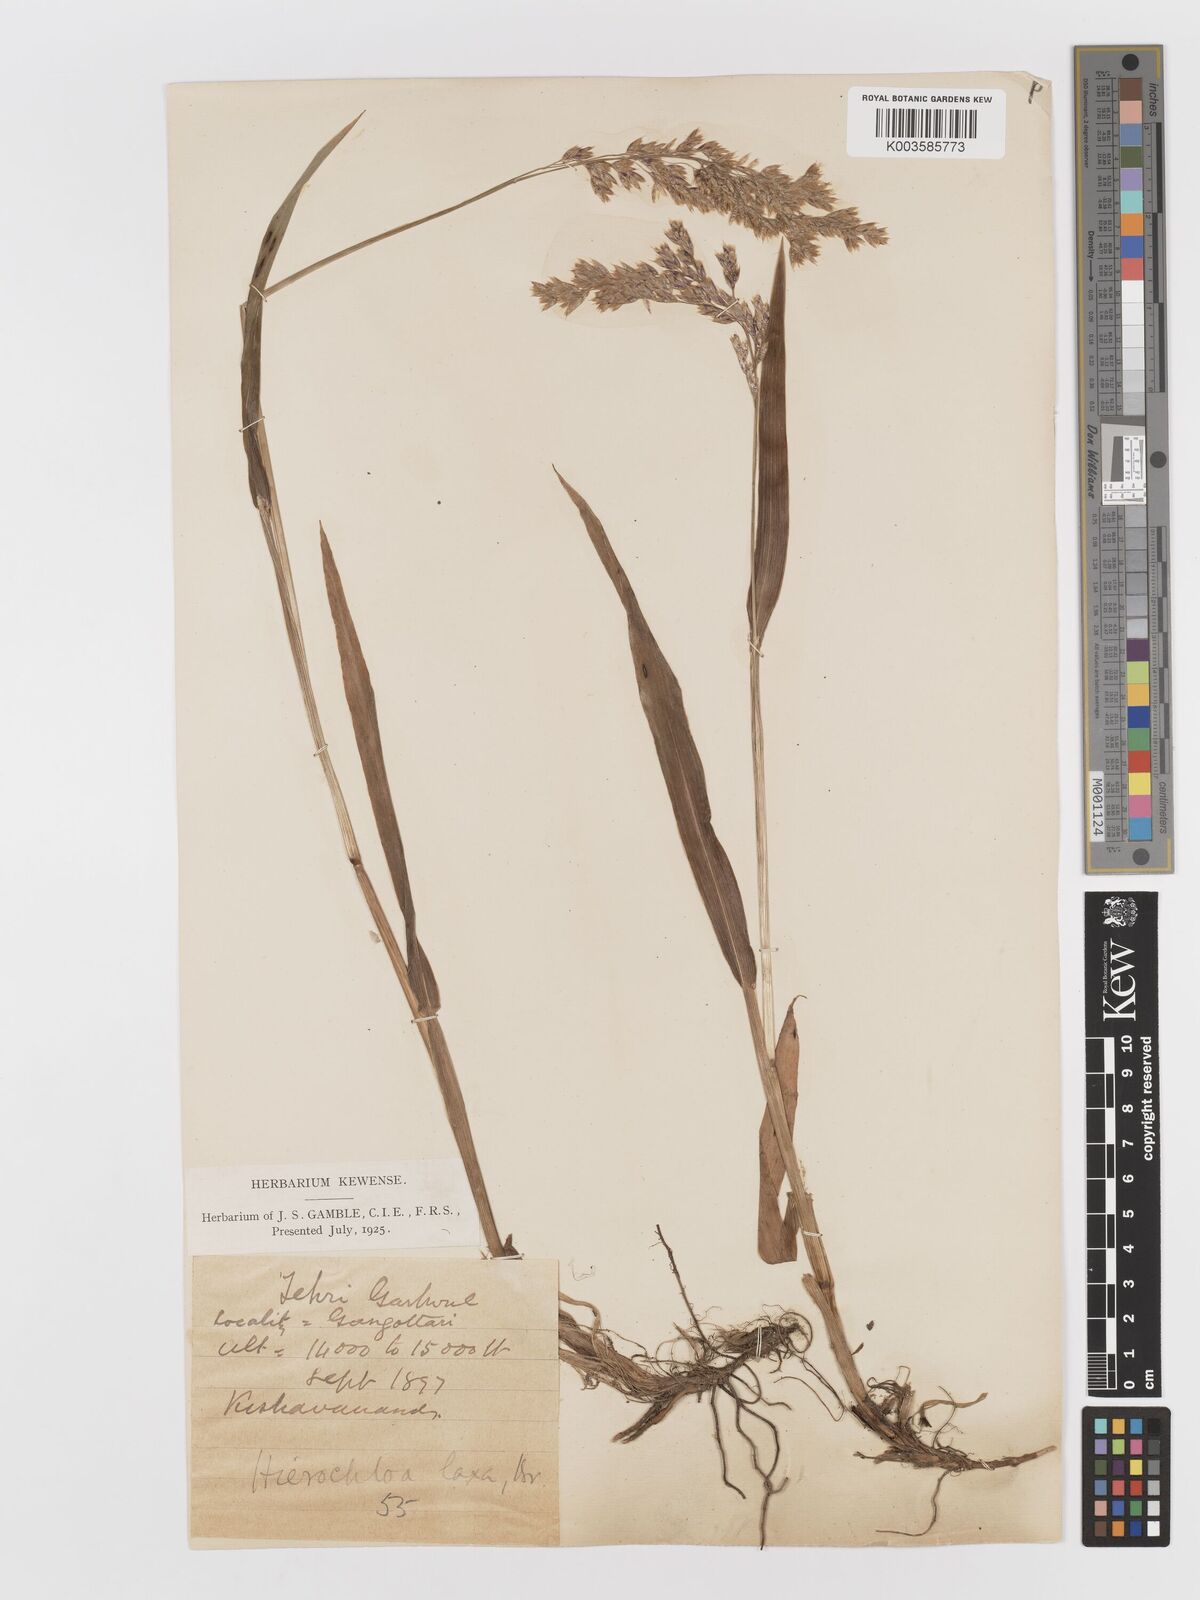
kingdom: Plantae
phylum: Tracheophyta
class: Liliopsida
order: Poales
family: Poaceae
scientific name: Poaceae
